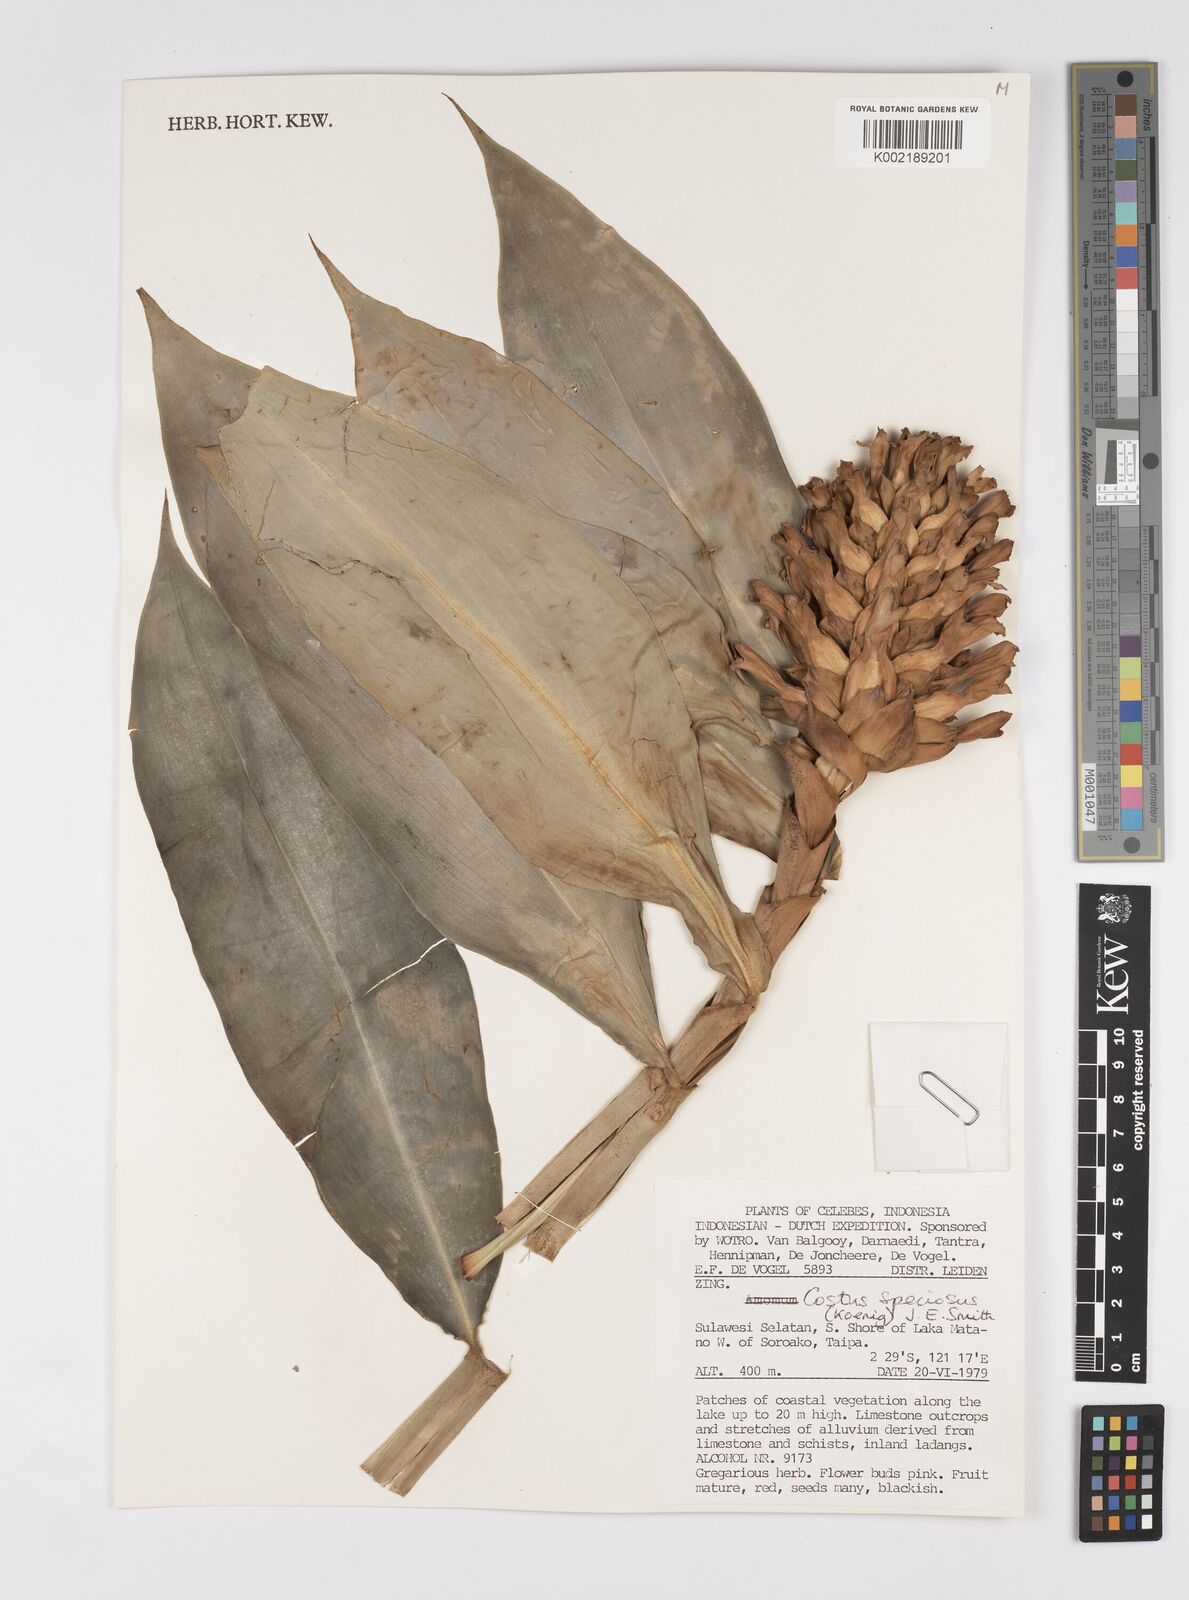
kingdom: Plantae
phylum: Tracheophyta
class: Liliopsida
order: Zingiberales
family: Costaceae
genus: Hellenia
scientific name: Hellenia speciosa
